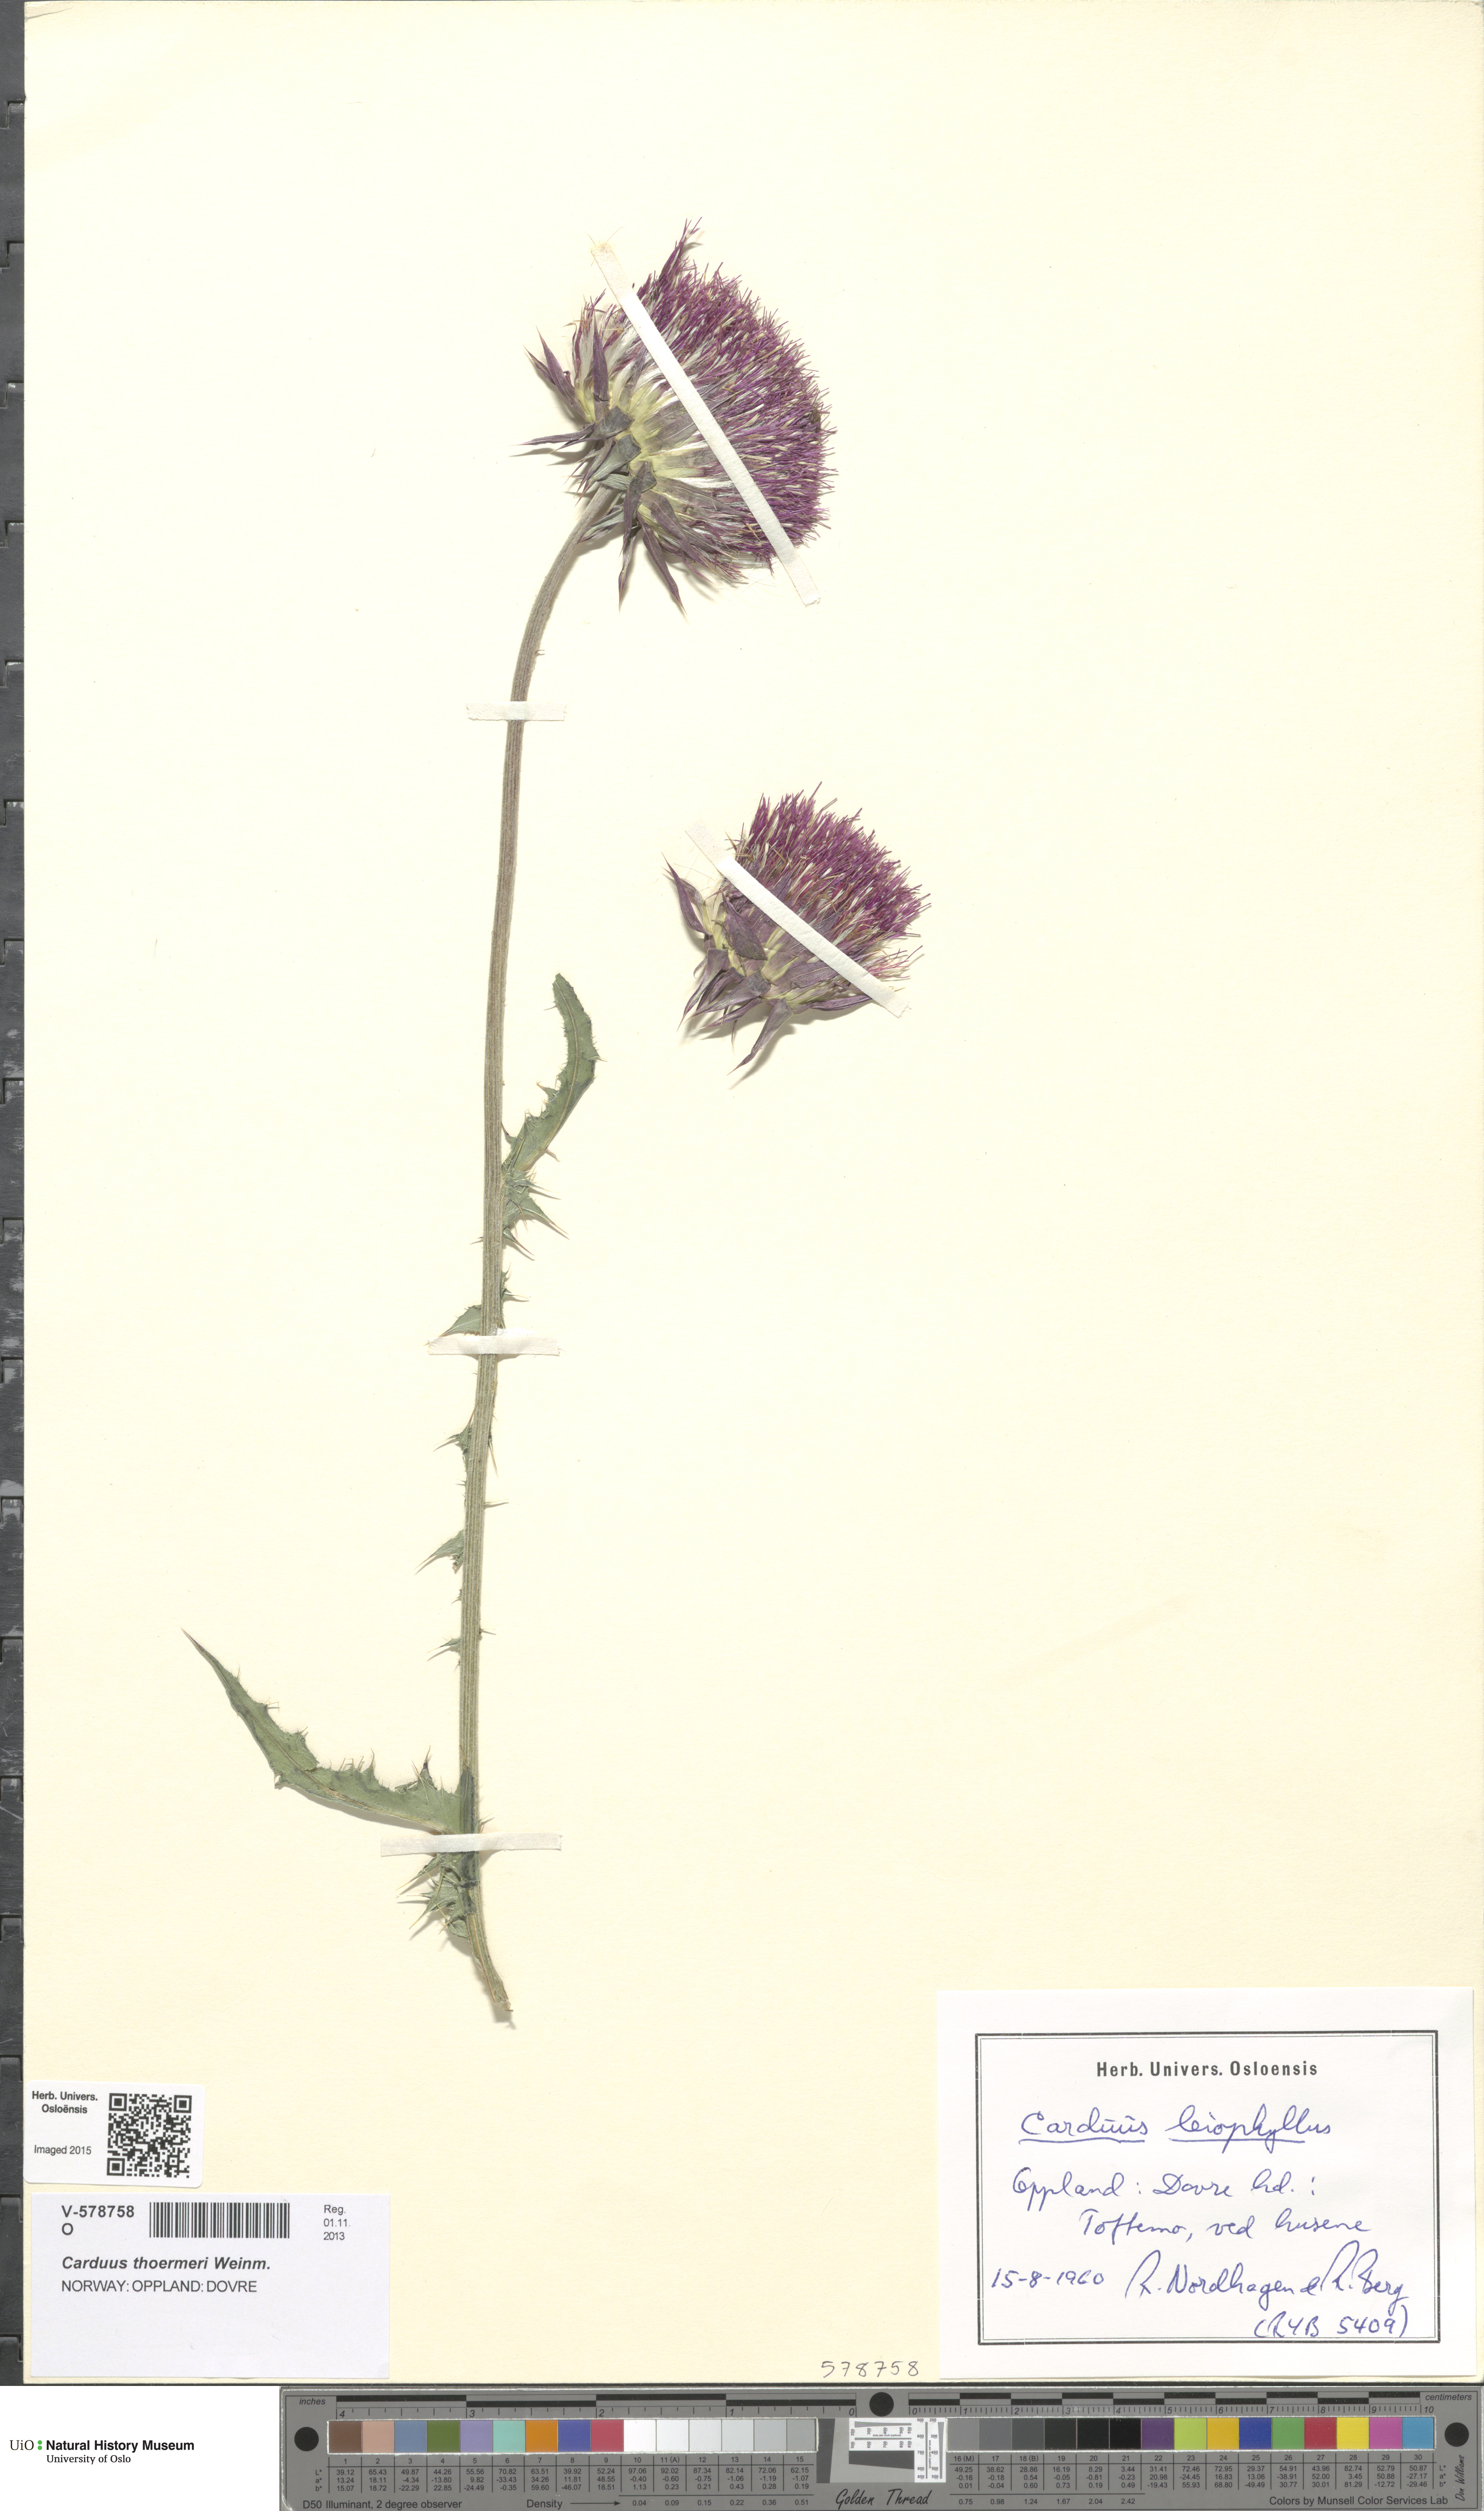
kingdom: Plantae
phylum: Tracheophyta
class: Magnoliopsida
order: Asterales
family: Asteraceae
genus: Carduus
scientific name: Carduus nutans
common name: Musk thistle
